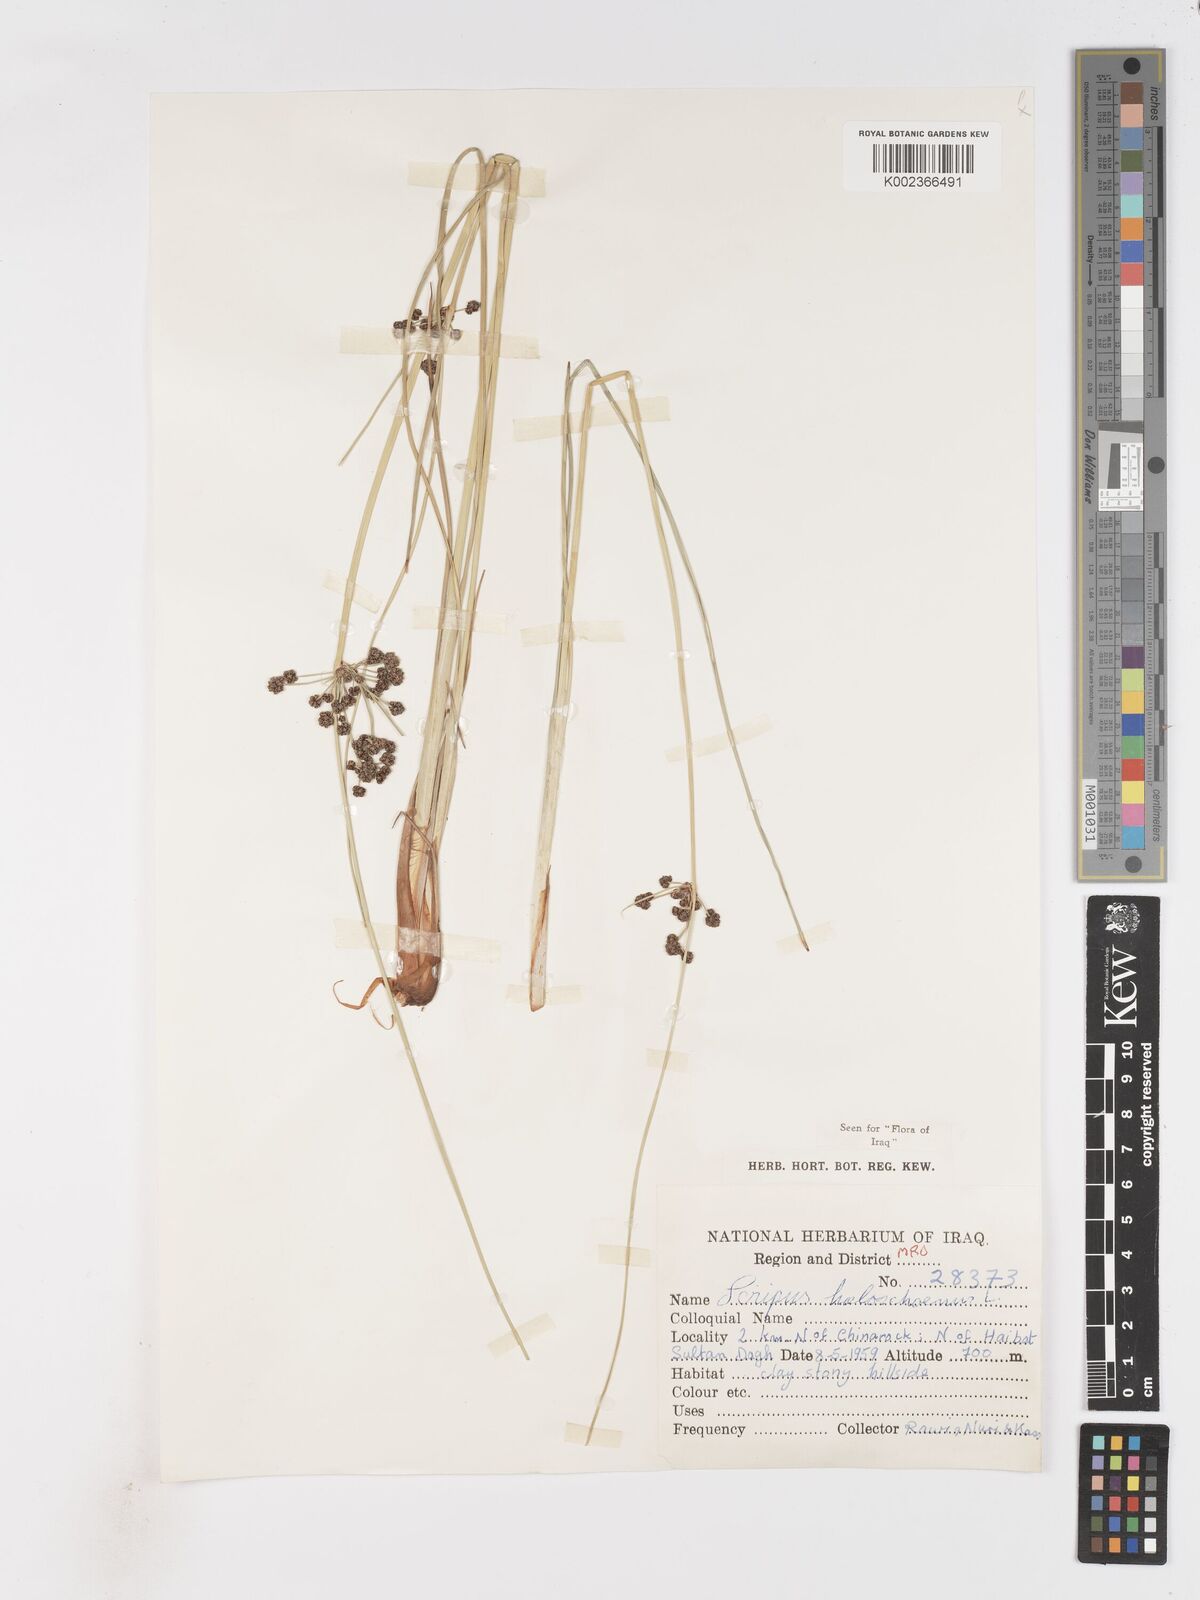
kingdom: Plantae
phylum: Tracheophyta
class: Liliopsida
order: Poales
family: Cyperaceae
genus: Scirpoides
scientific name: Scirpoides holoschoenus
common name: Round-headed club-rush
